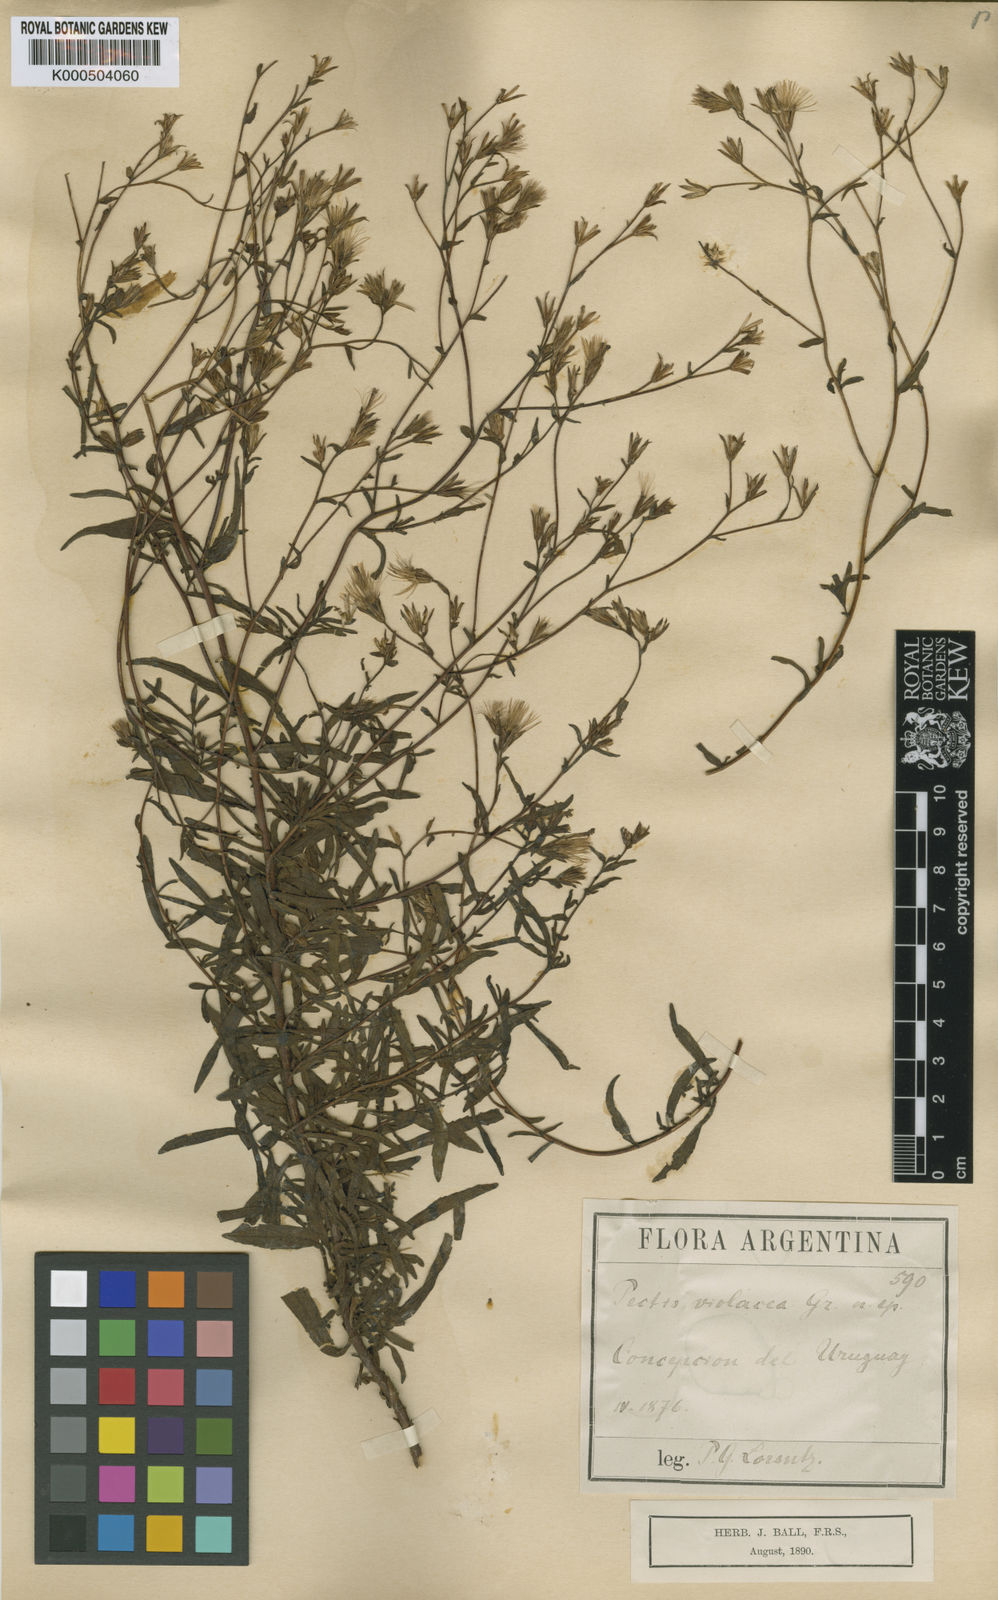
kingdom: Plantae
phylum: Tracheophyta
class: Magnoliopsida
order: Asterales
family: Asteraceae
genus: Stevia
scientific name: Stevia multiaristata
